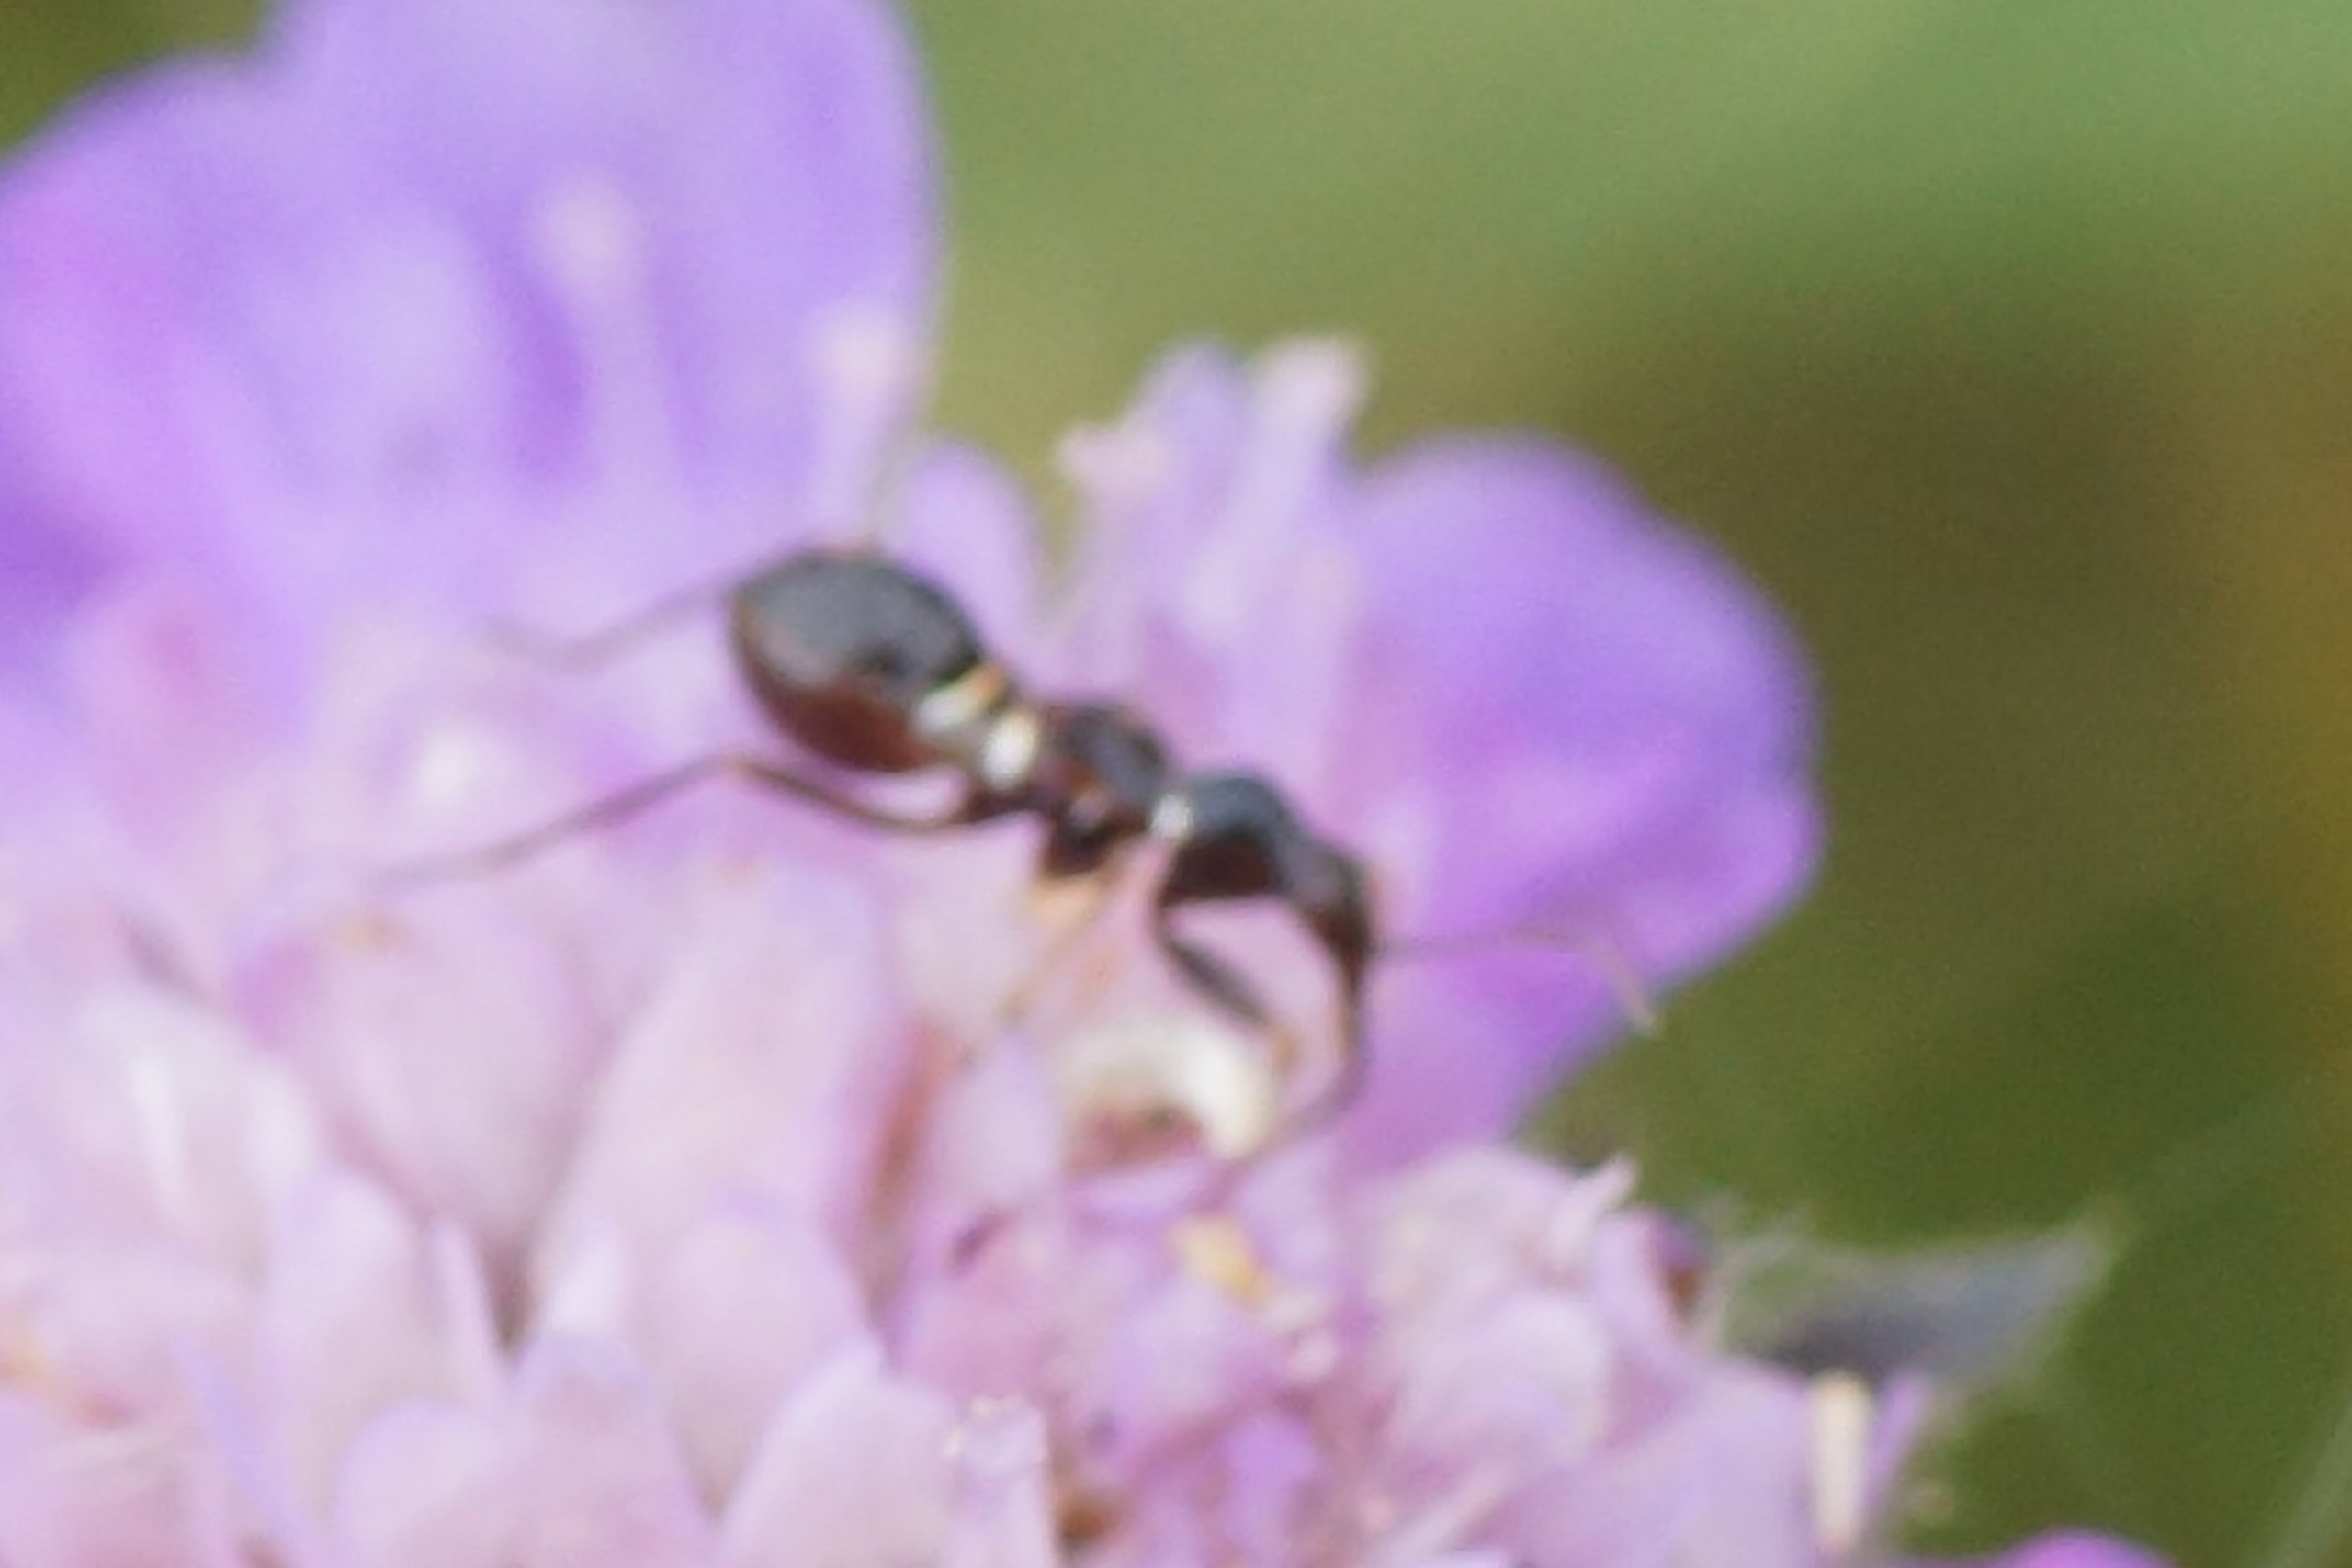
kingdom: Animalia
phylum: Arthropoda
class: Insecta
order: Hemiptera
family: Nabidae
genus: Himacerus
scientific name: Himacerus mirmicoides
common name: Myrenymfetæge
